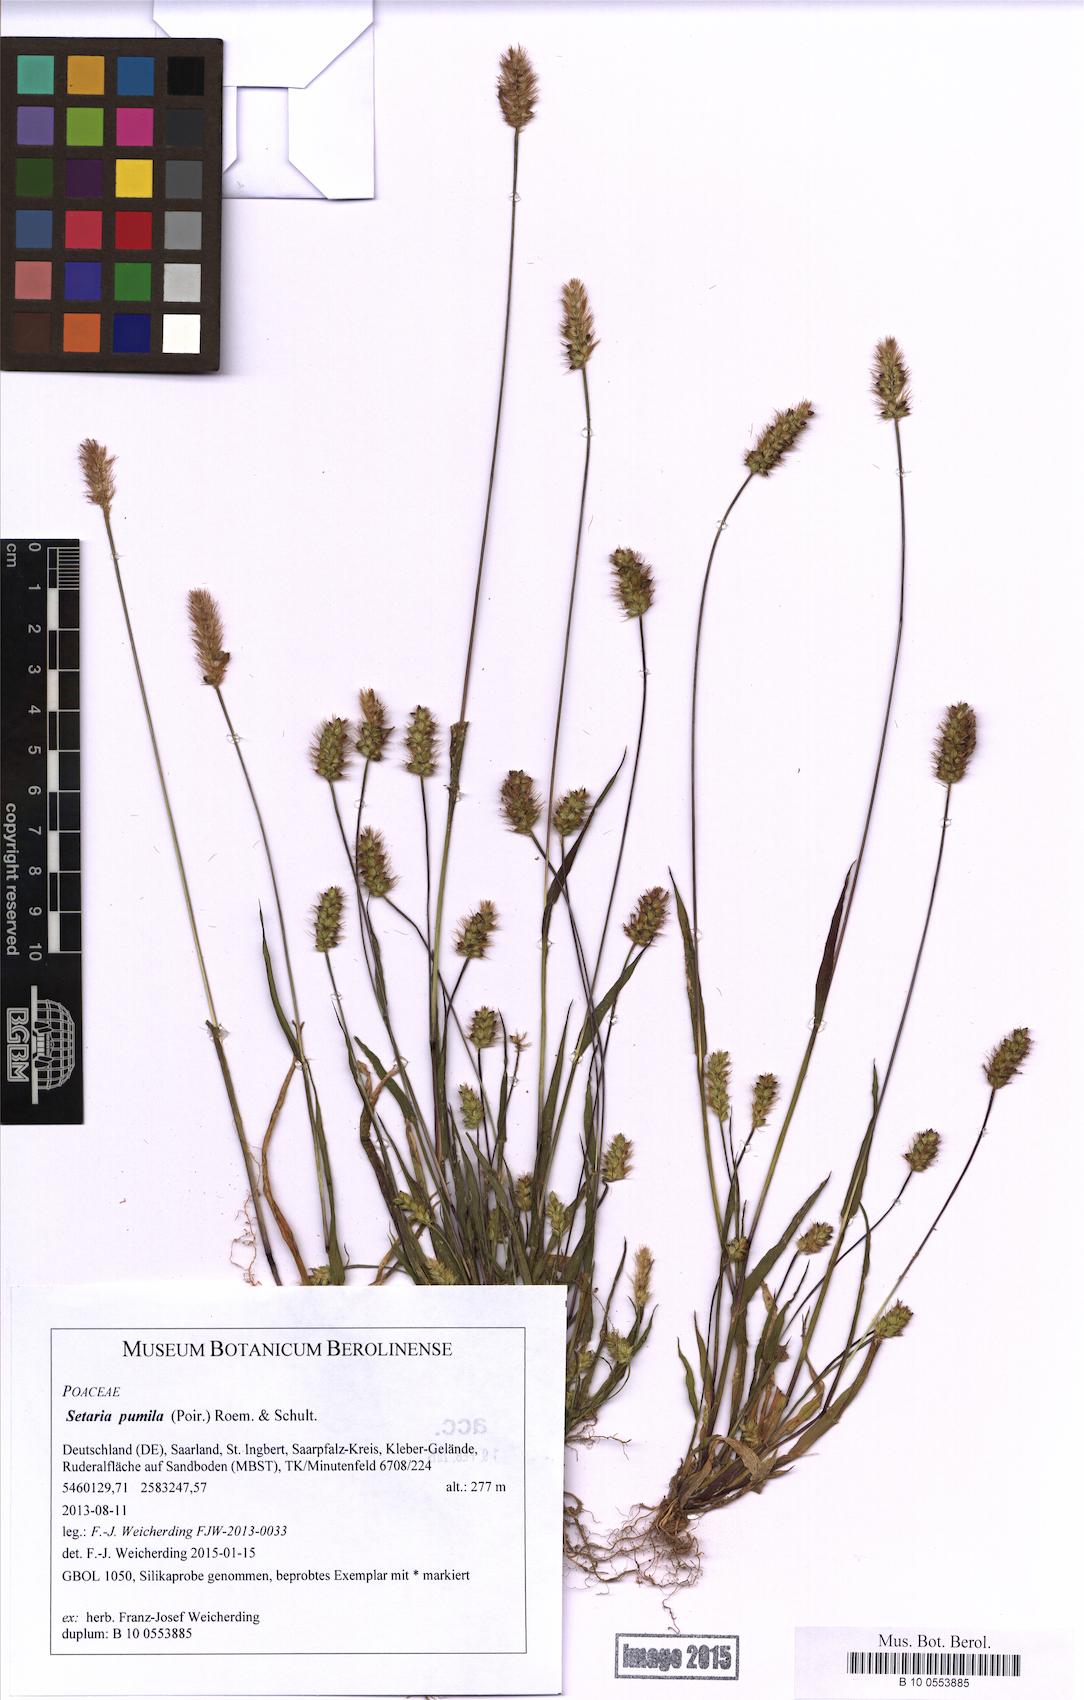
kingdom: Plantae
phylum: Tracheophyta
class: Liliopsida
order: Poales
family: Poaceae
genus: Setaria
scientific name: Setaria pumila
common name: Yellow bristle-grass
